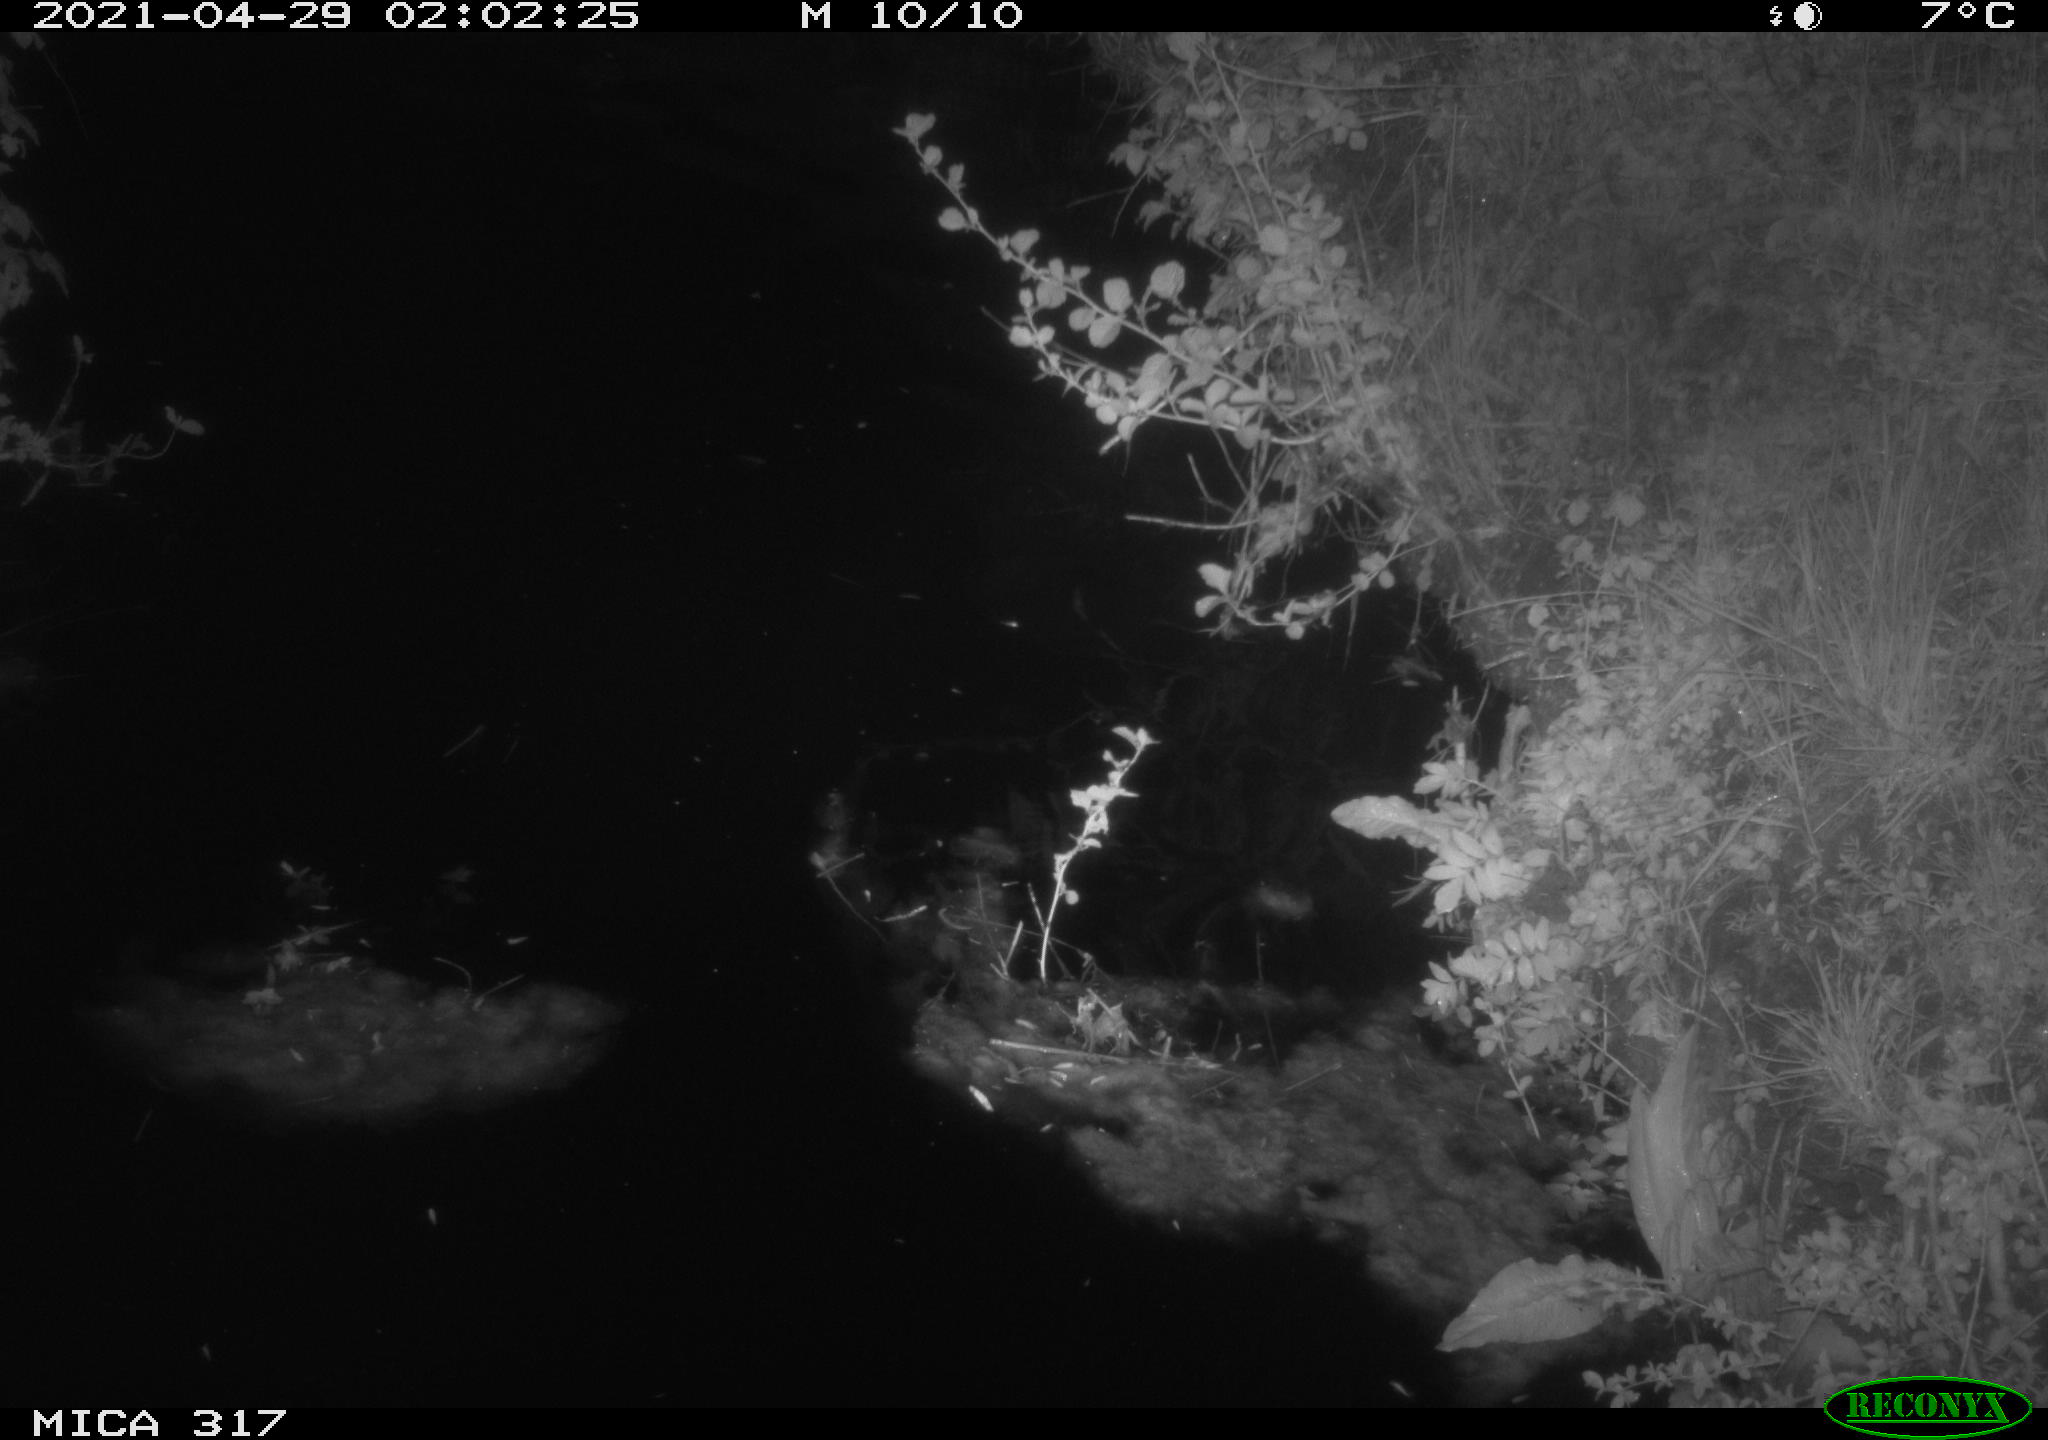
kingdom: Animalia
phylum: Chordata
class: Aves
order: Anseriformes
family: Anatidae
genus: Anas
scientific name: Anas platyrhynchos
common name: Mallard
